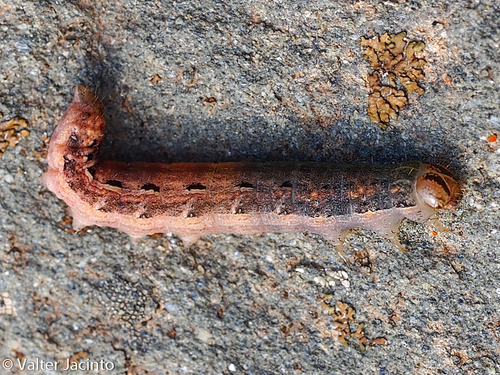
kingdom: Animalia
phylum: Arthropoda
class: Insecta
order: Lepidoptera
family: Noctuidae
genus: Noctua
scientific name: Noctua pronuba
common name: Large yellow underwing
